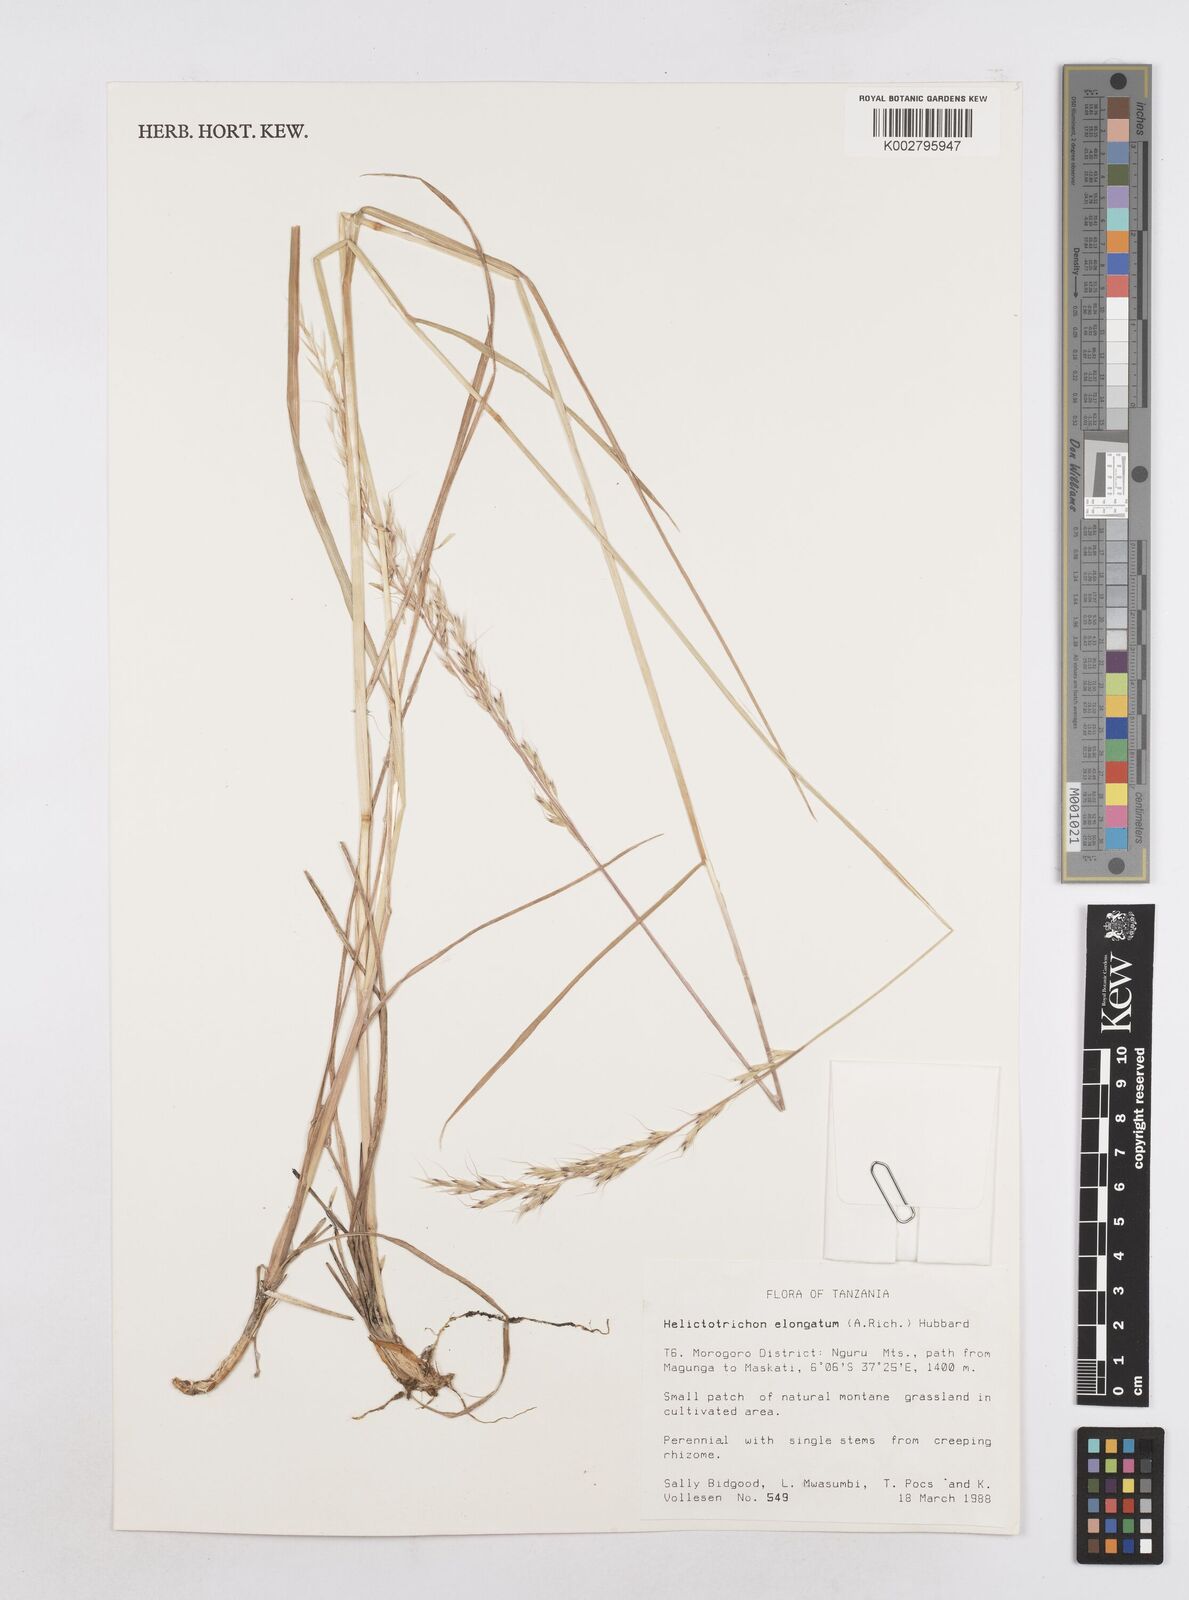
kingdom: Plantae
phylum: Tracheophyta
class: Liliopsida
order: Poales
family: Poaceae
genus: Trisetopsis
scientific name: Trisetopsis elongata
